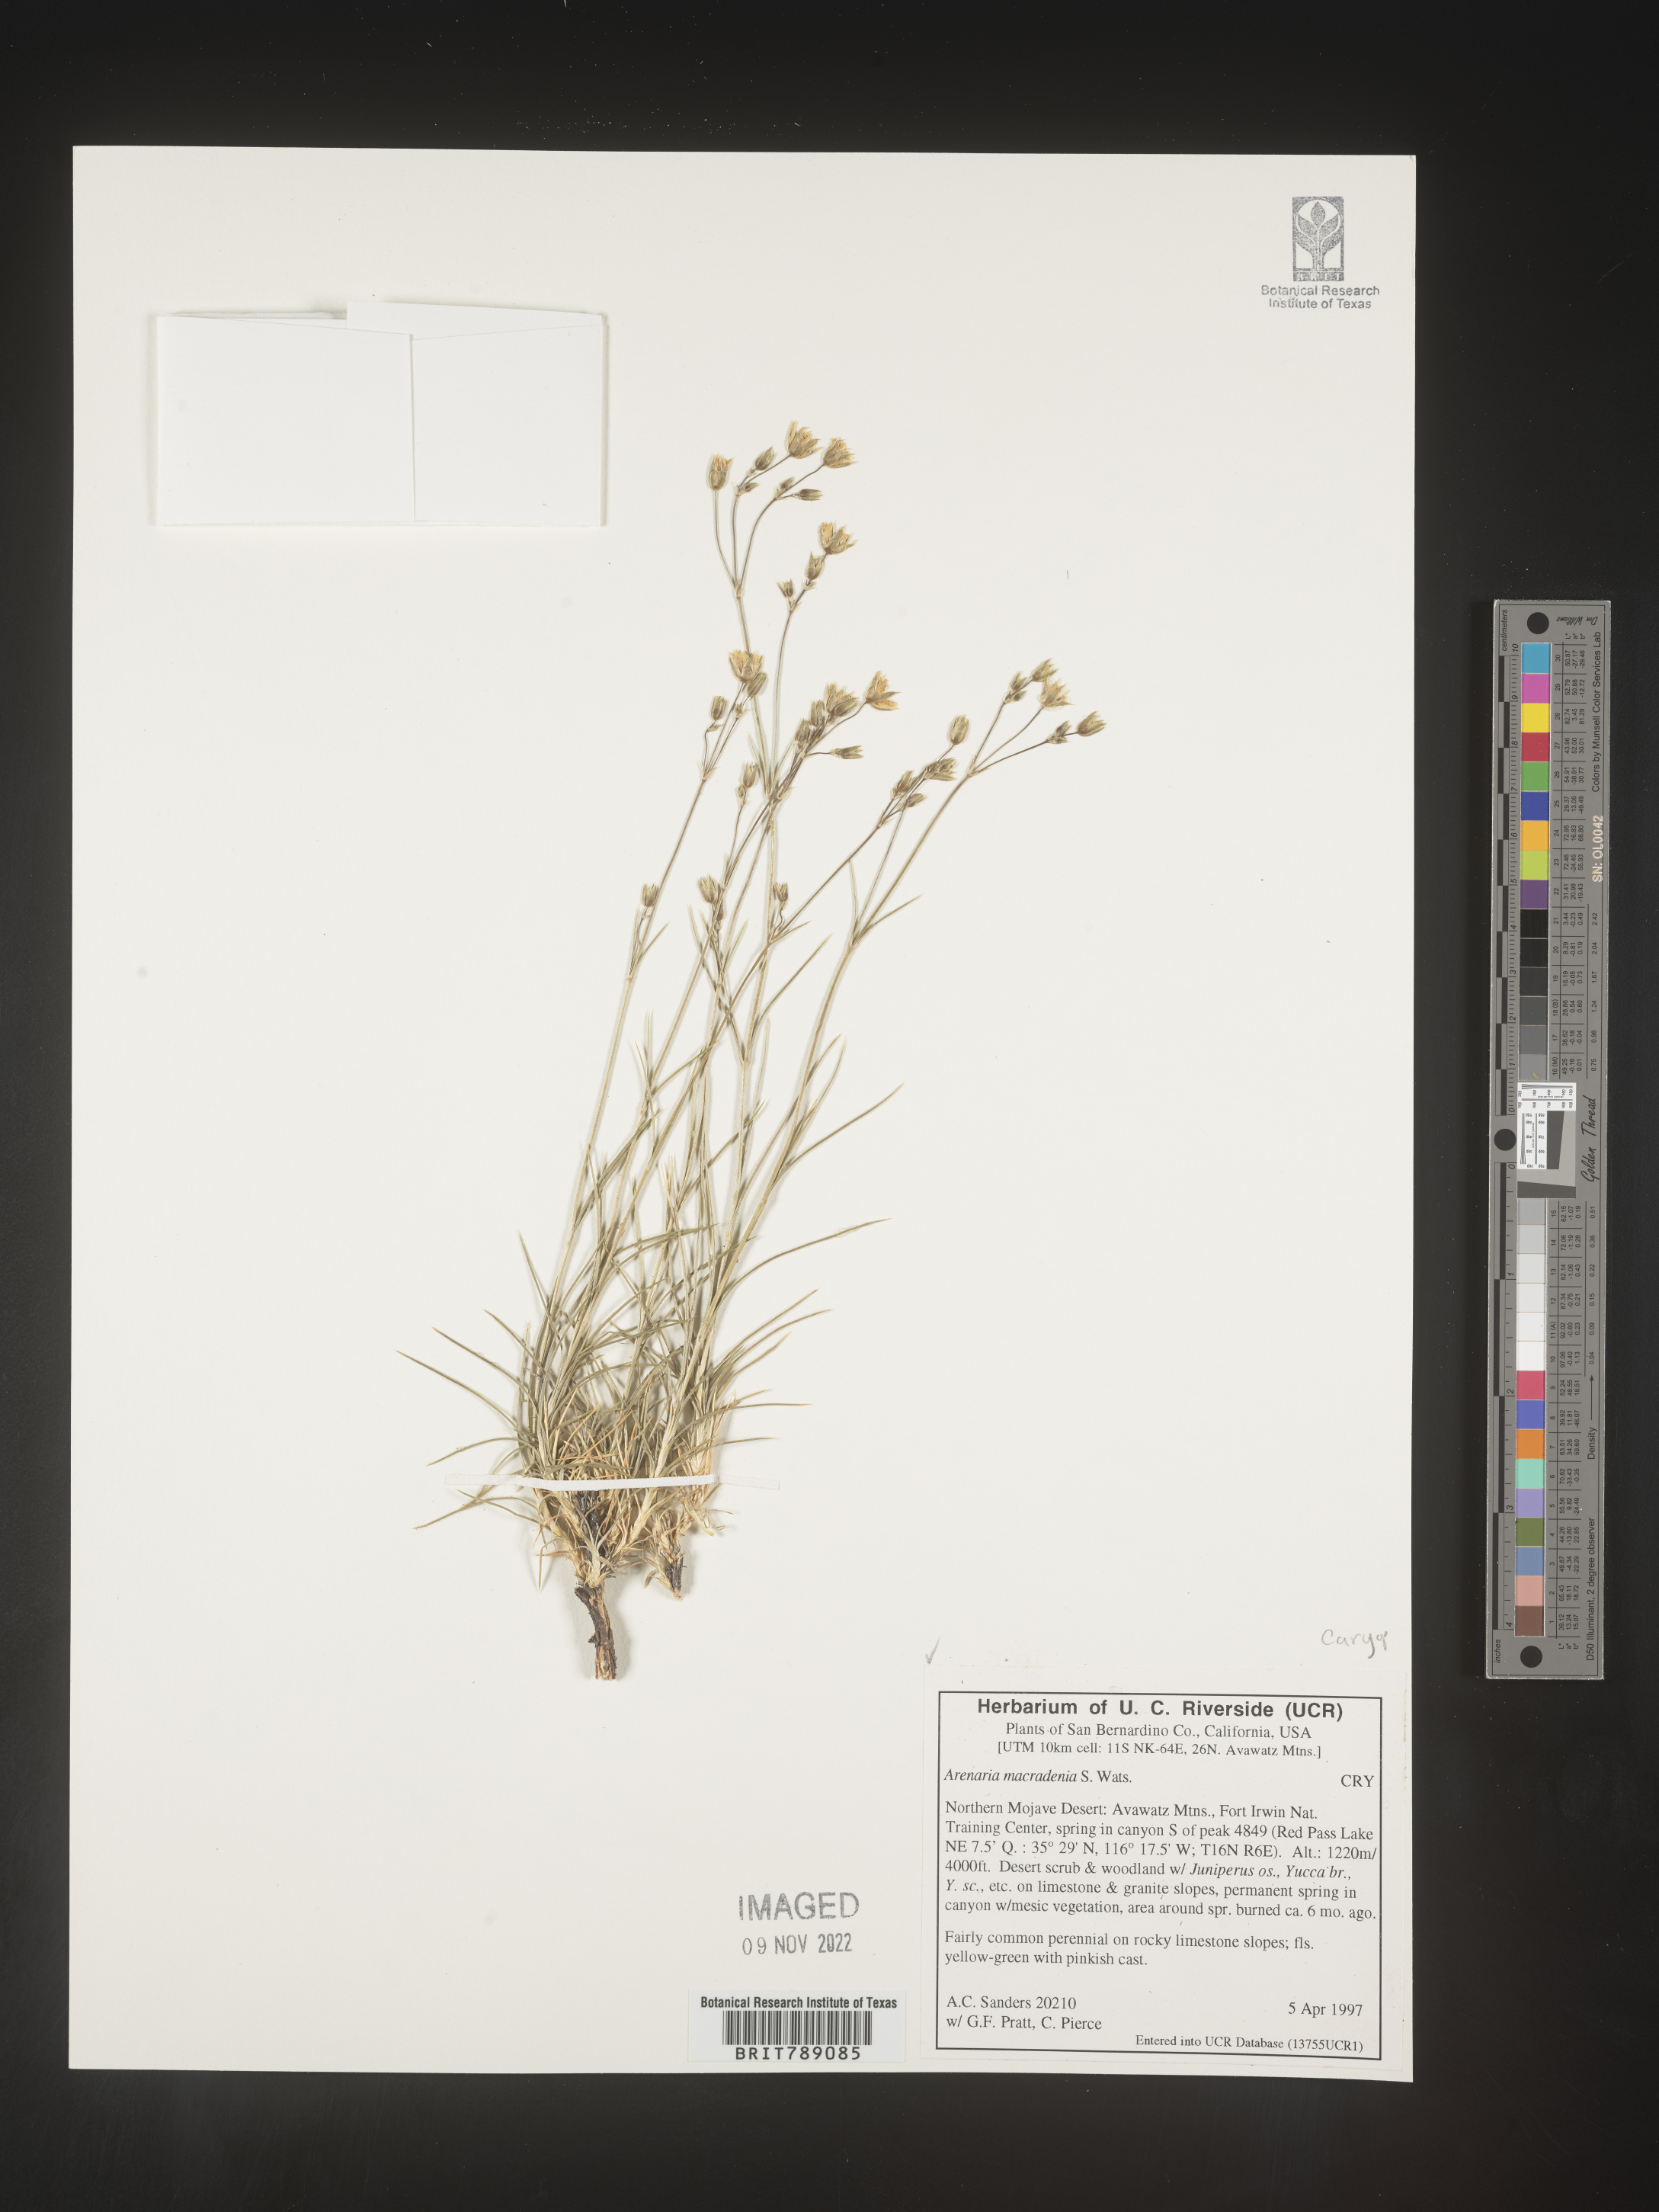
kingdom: Plantae
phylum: Tracheophyta
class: Magnoliopsida
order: Caryophyllales
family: Caryophyllaceae
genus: Arenaria
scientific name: Arenaria
